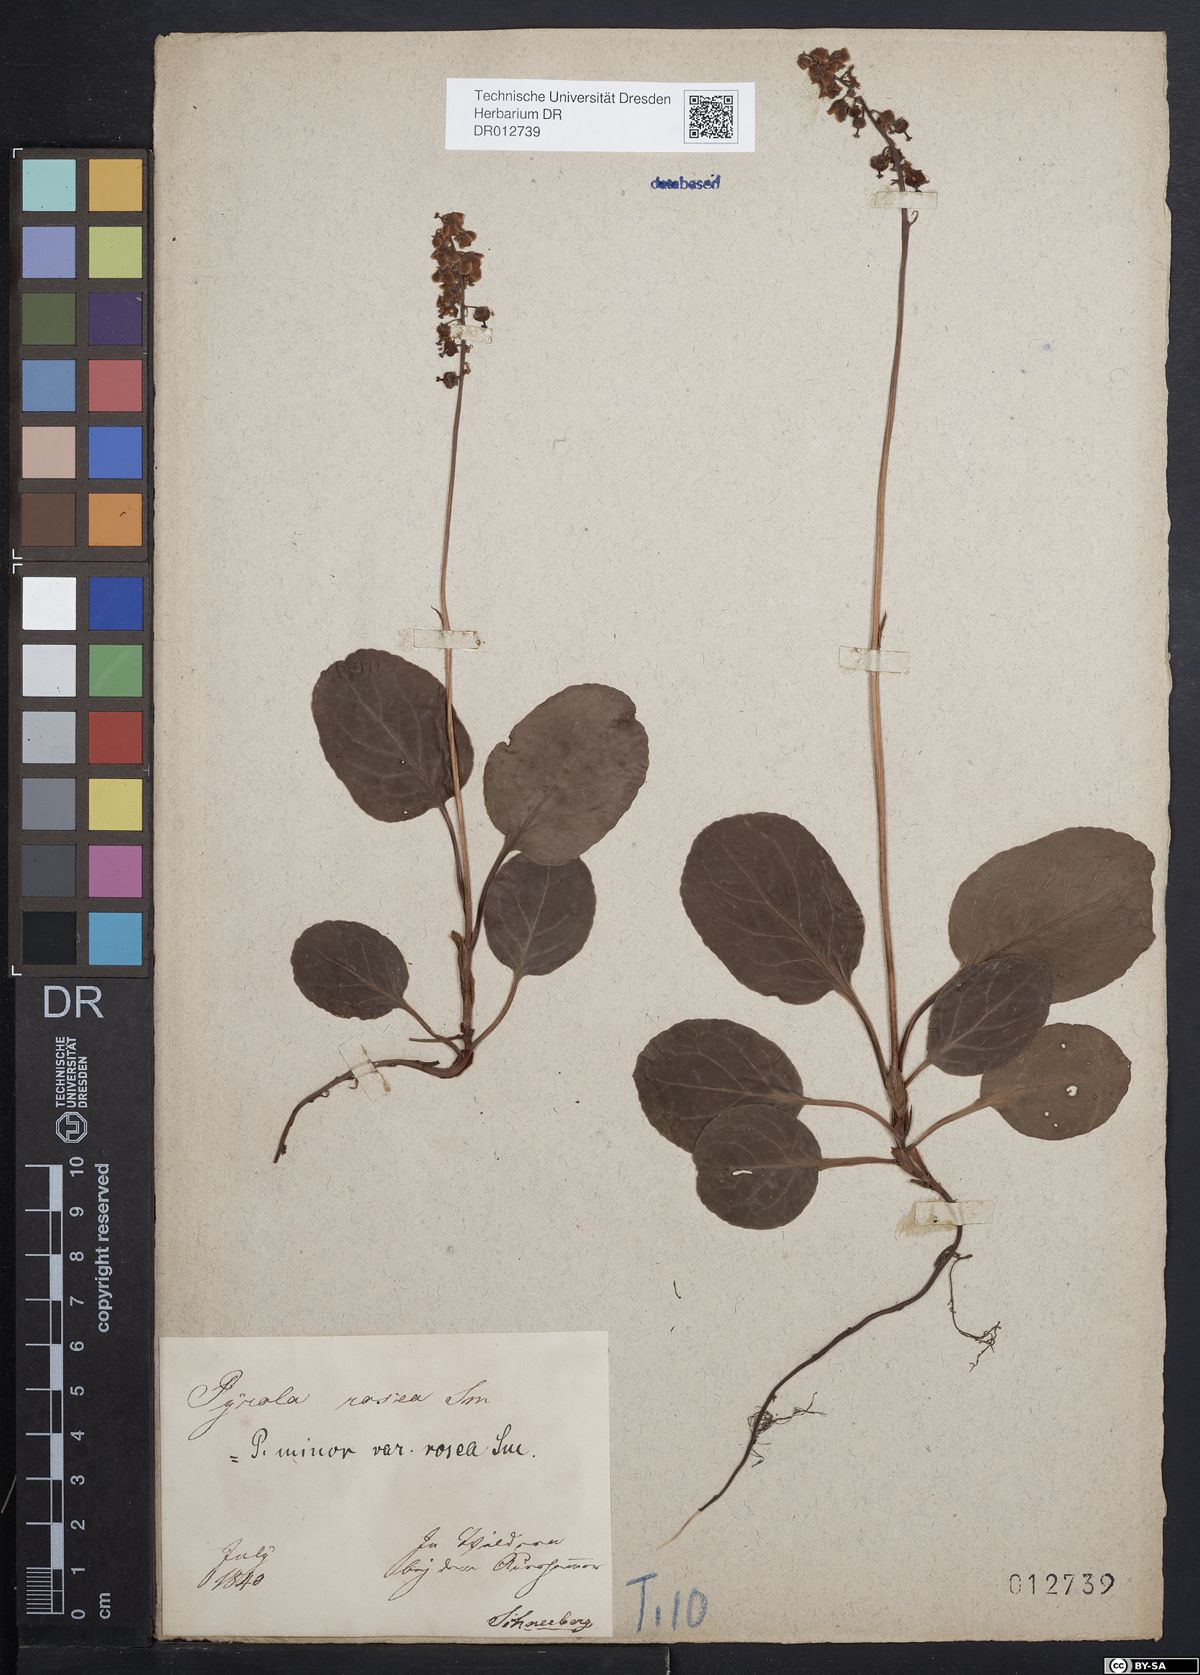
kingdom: Plantae
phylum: Tracheophyta
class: Magnoliopsida
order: Ericales
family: Ericaceae
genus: Pyrola
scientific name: Pyrola minor
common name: Common wintergreen
